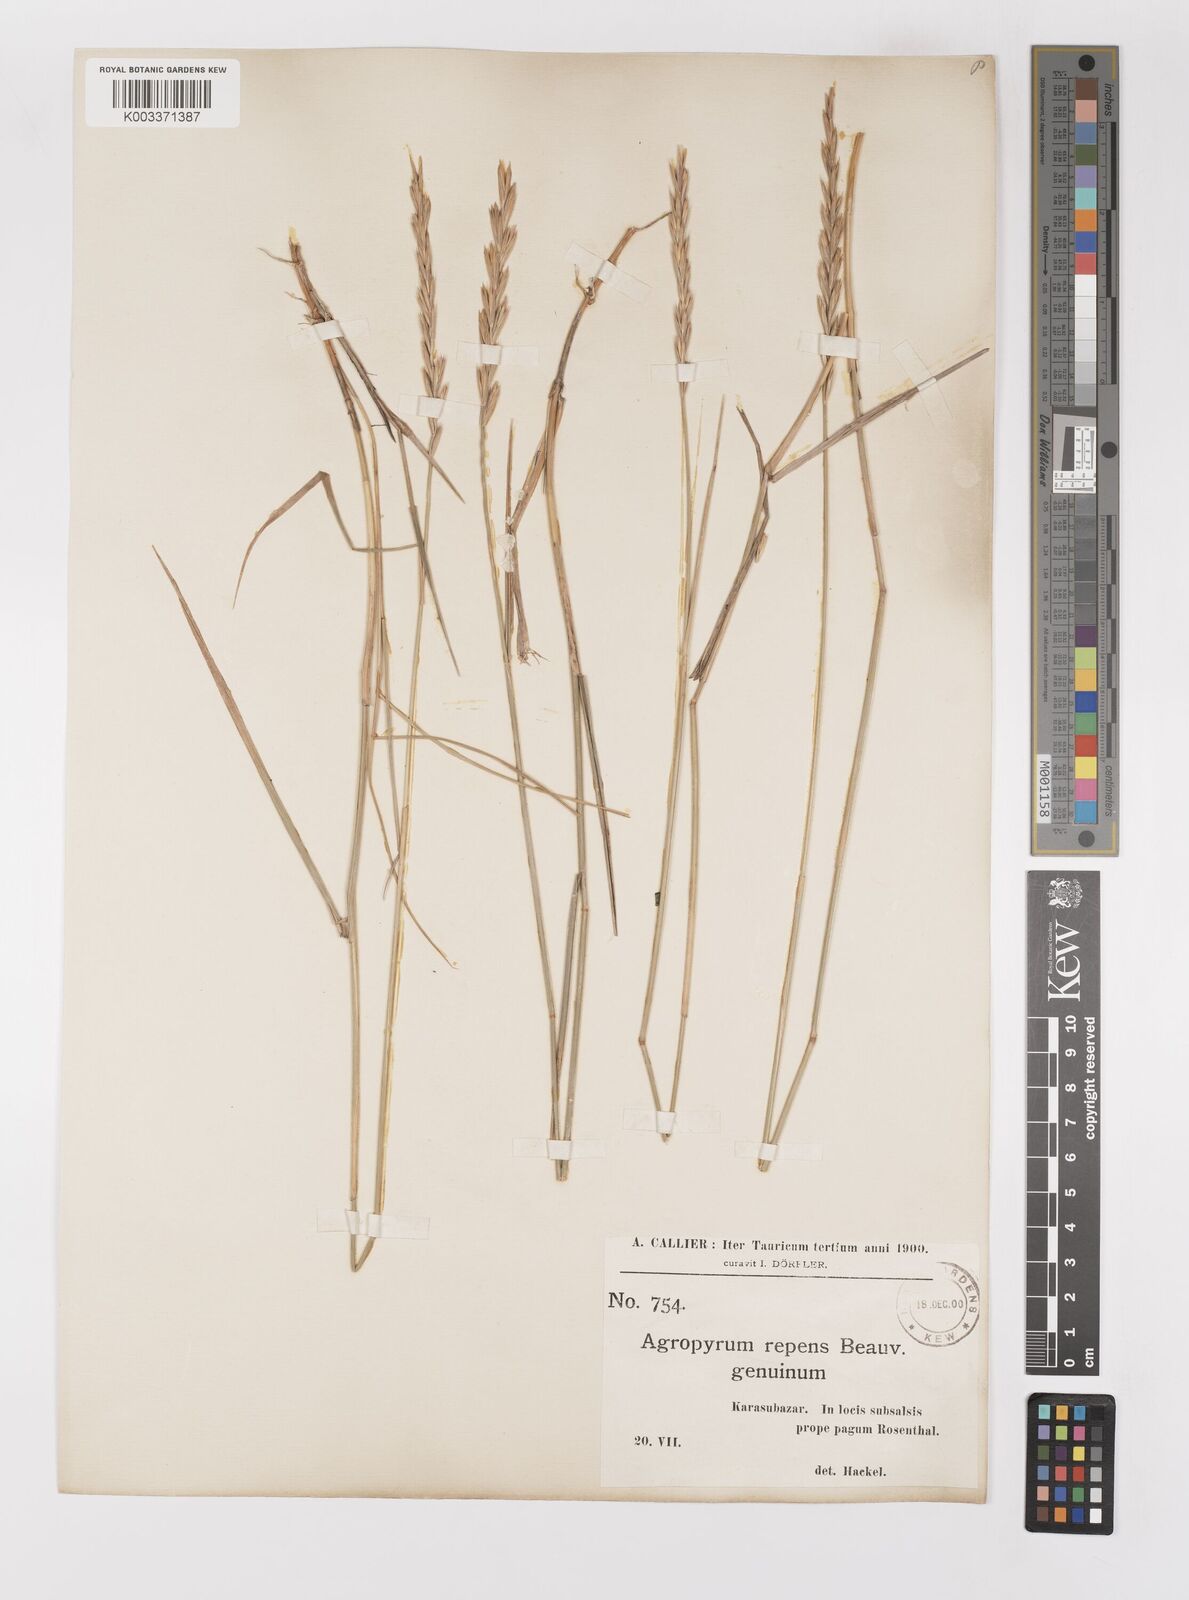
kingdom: Plantae
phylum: Tracheophyta
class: Liliopsida
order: Poales
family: Poaceae
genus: Elymus
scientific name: Elymus repens
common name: Quackgrass
